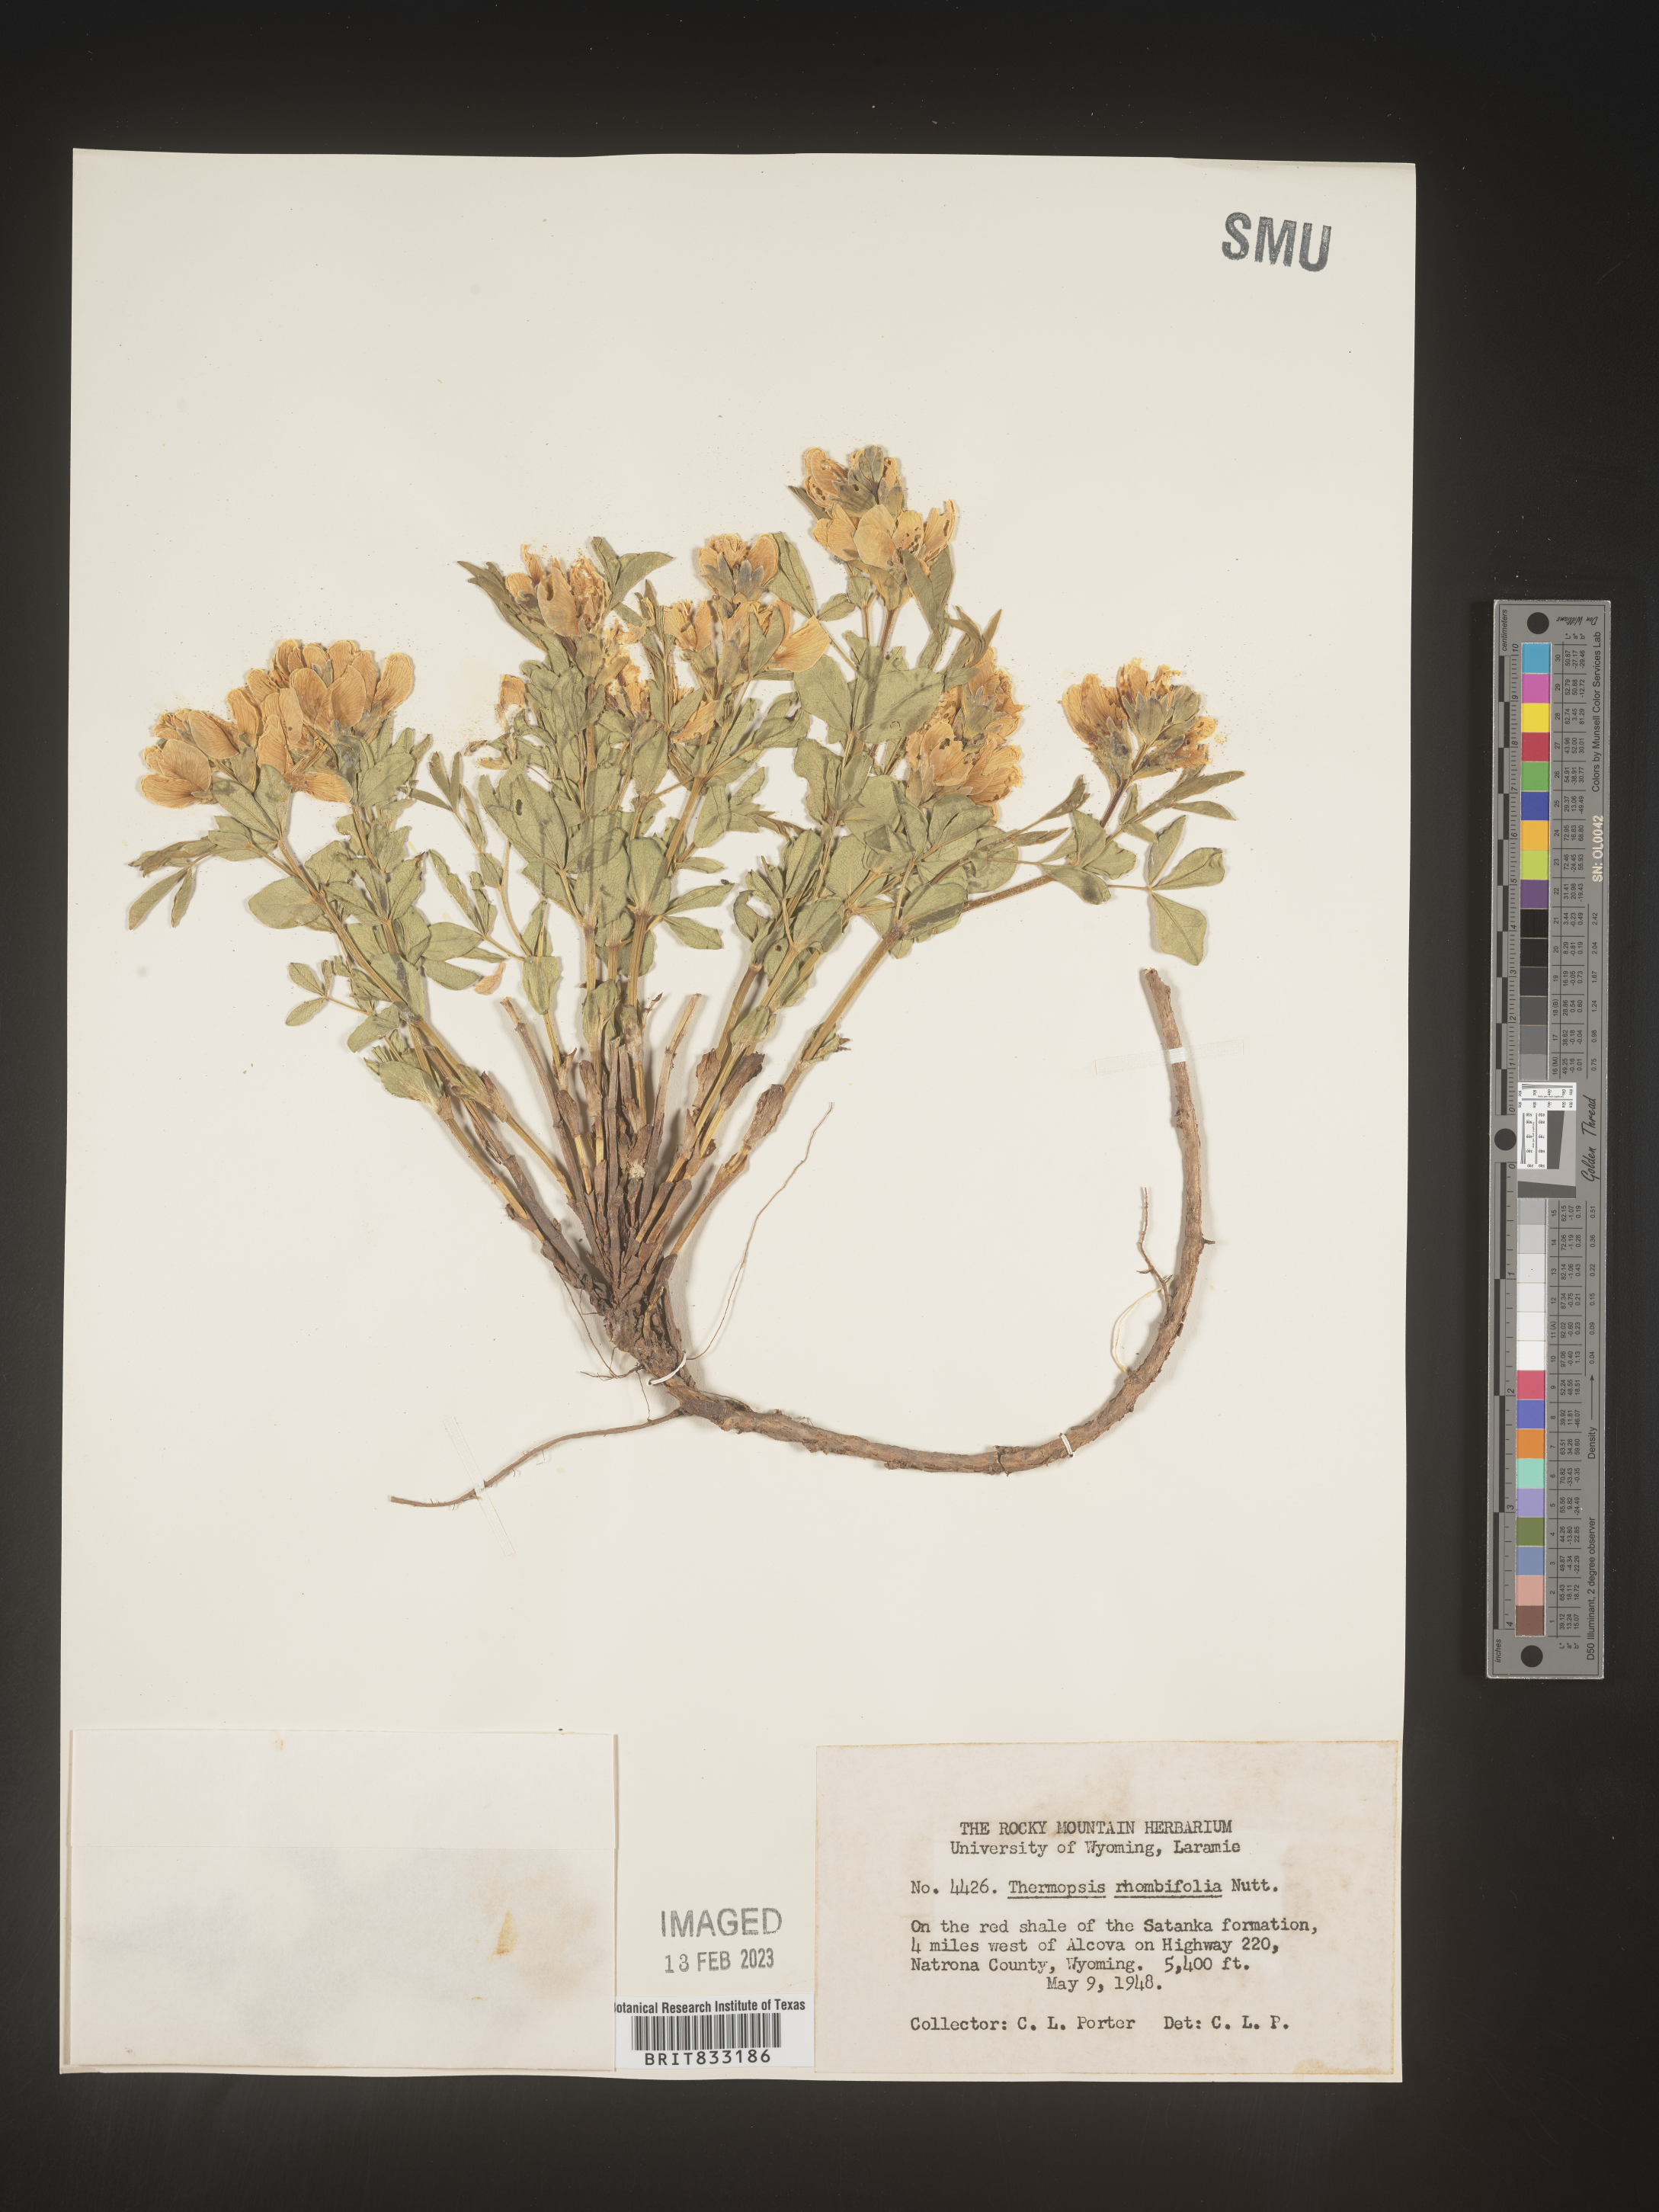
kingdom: Plantae
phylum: Tracheophyta
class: Magnoliopsida
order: Fabales
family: Fabaceae
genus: Thermopsis
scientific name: Thermopsis rhombifolia
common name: Circle-pod-pea
